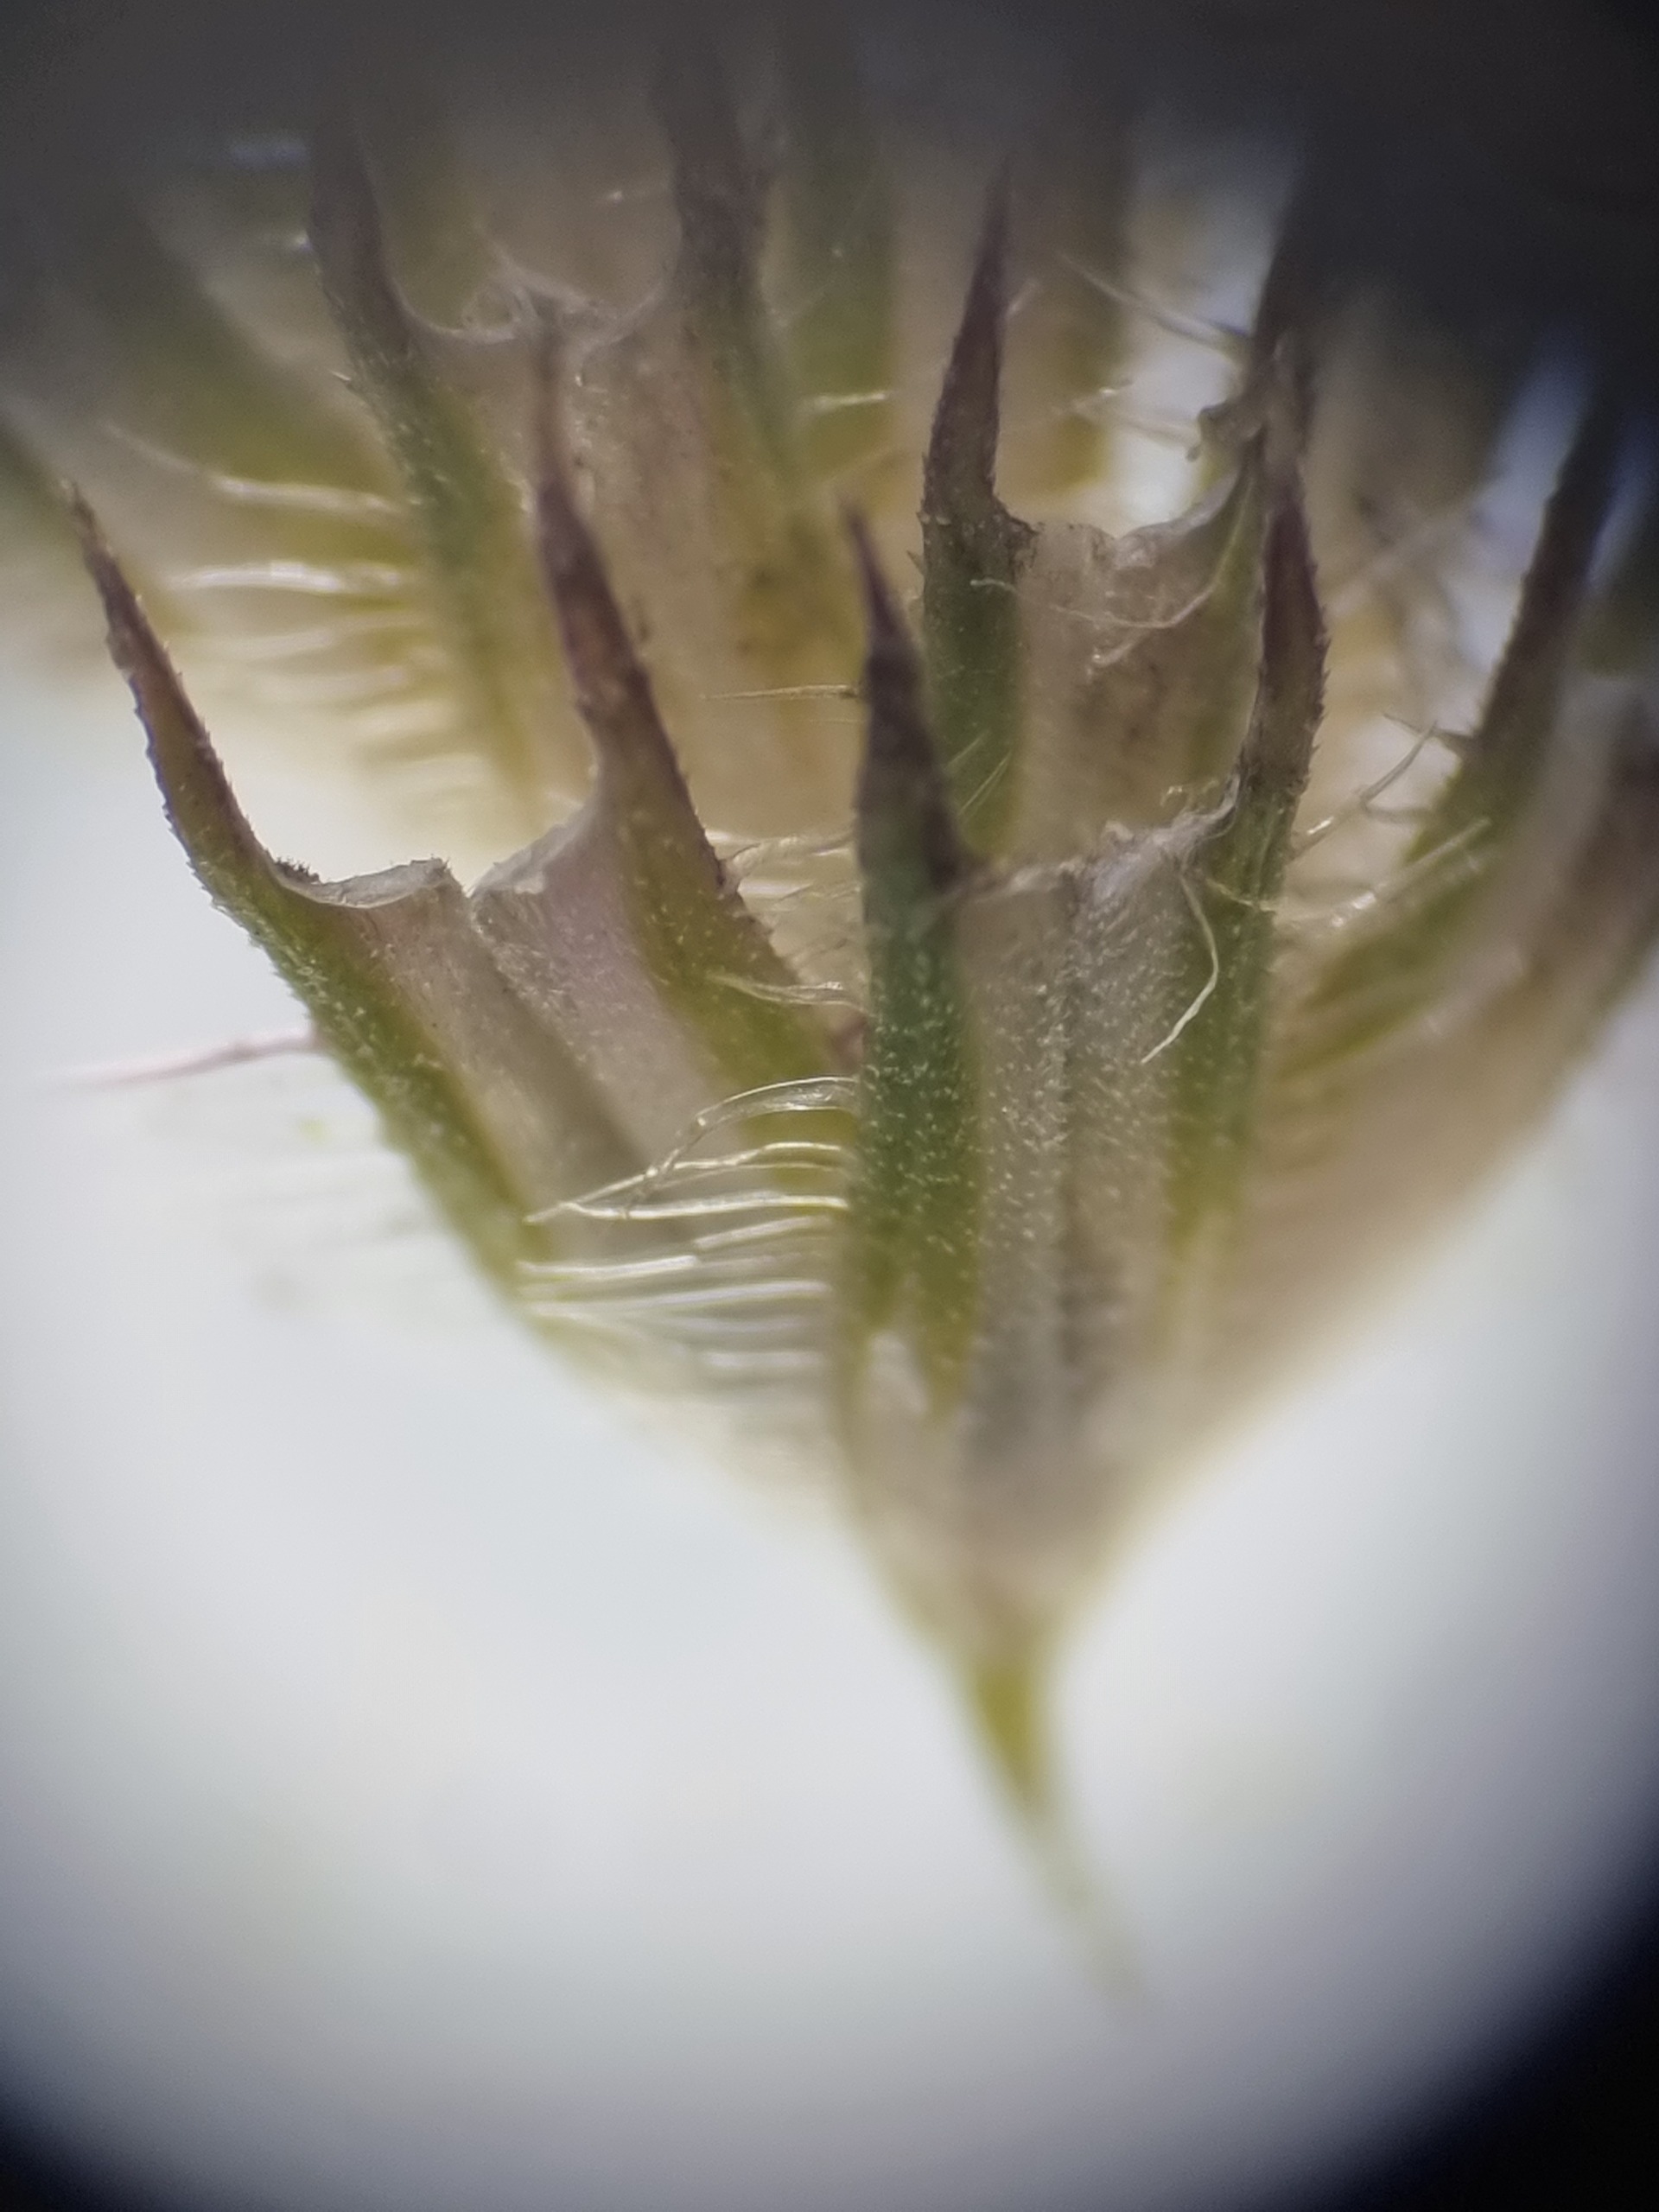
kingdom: Plantae
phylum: Tracheophyta
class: Liliopsida
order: Poales
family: Poaceae
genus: Phleum
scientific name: Phleum pratense
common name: Eng-rottehale
